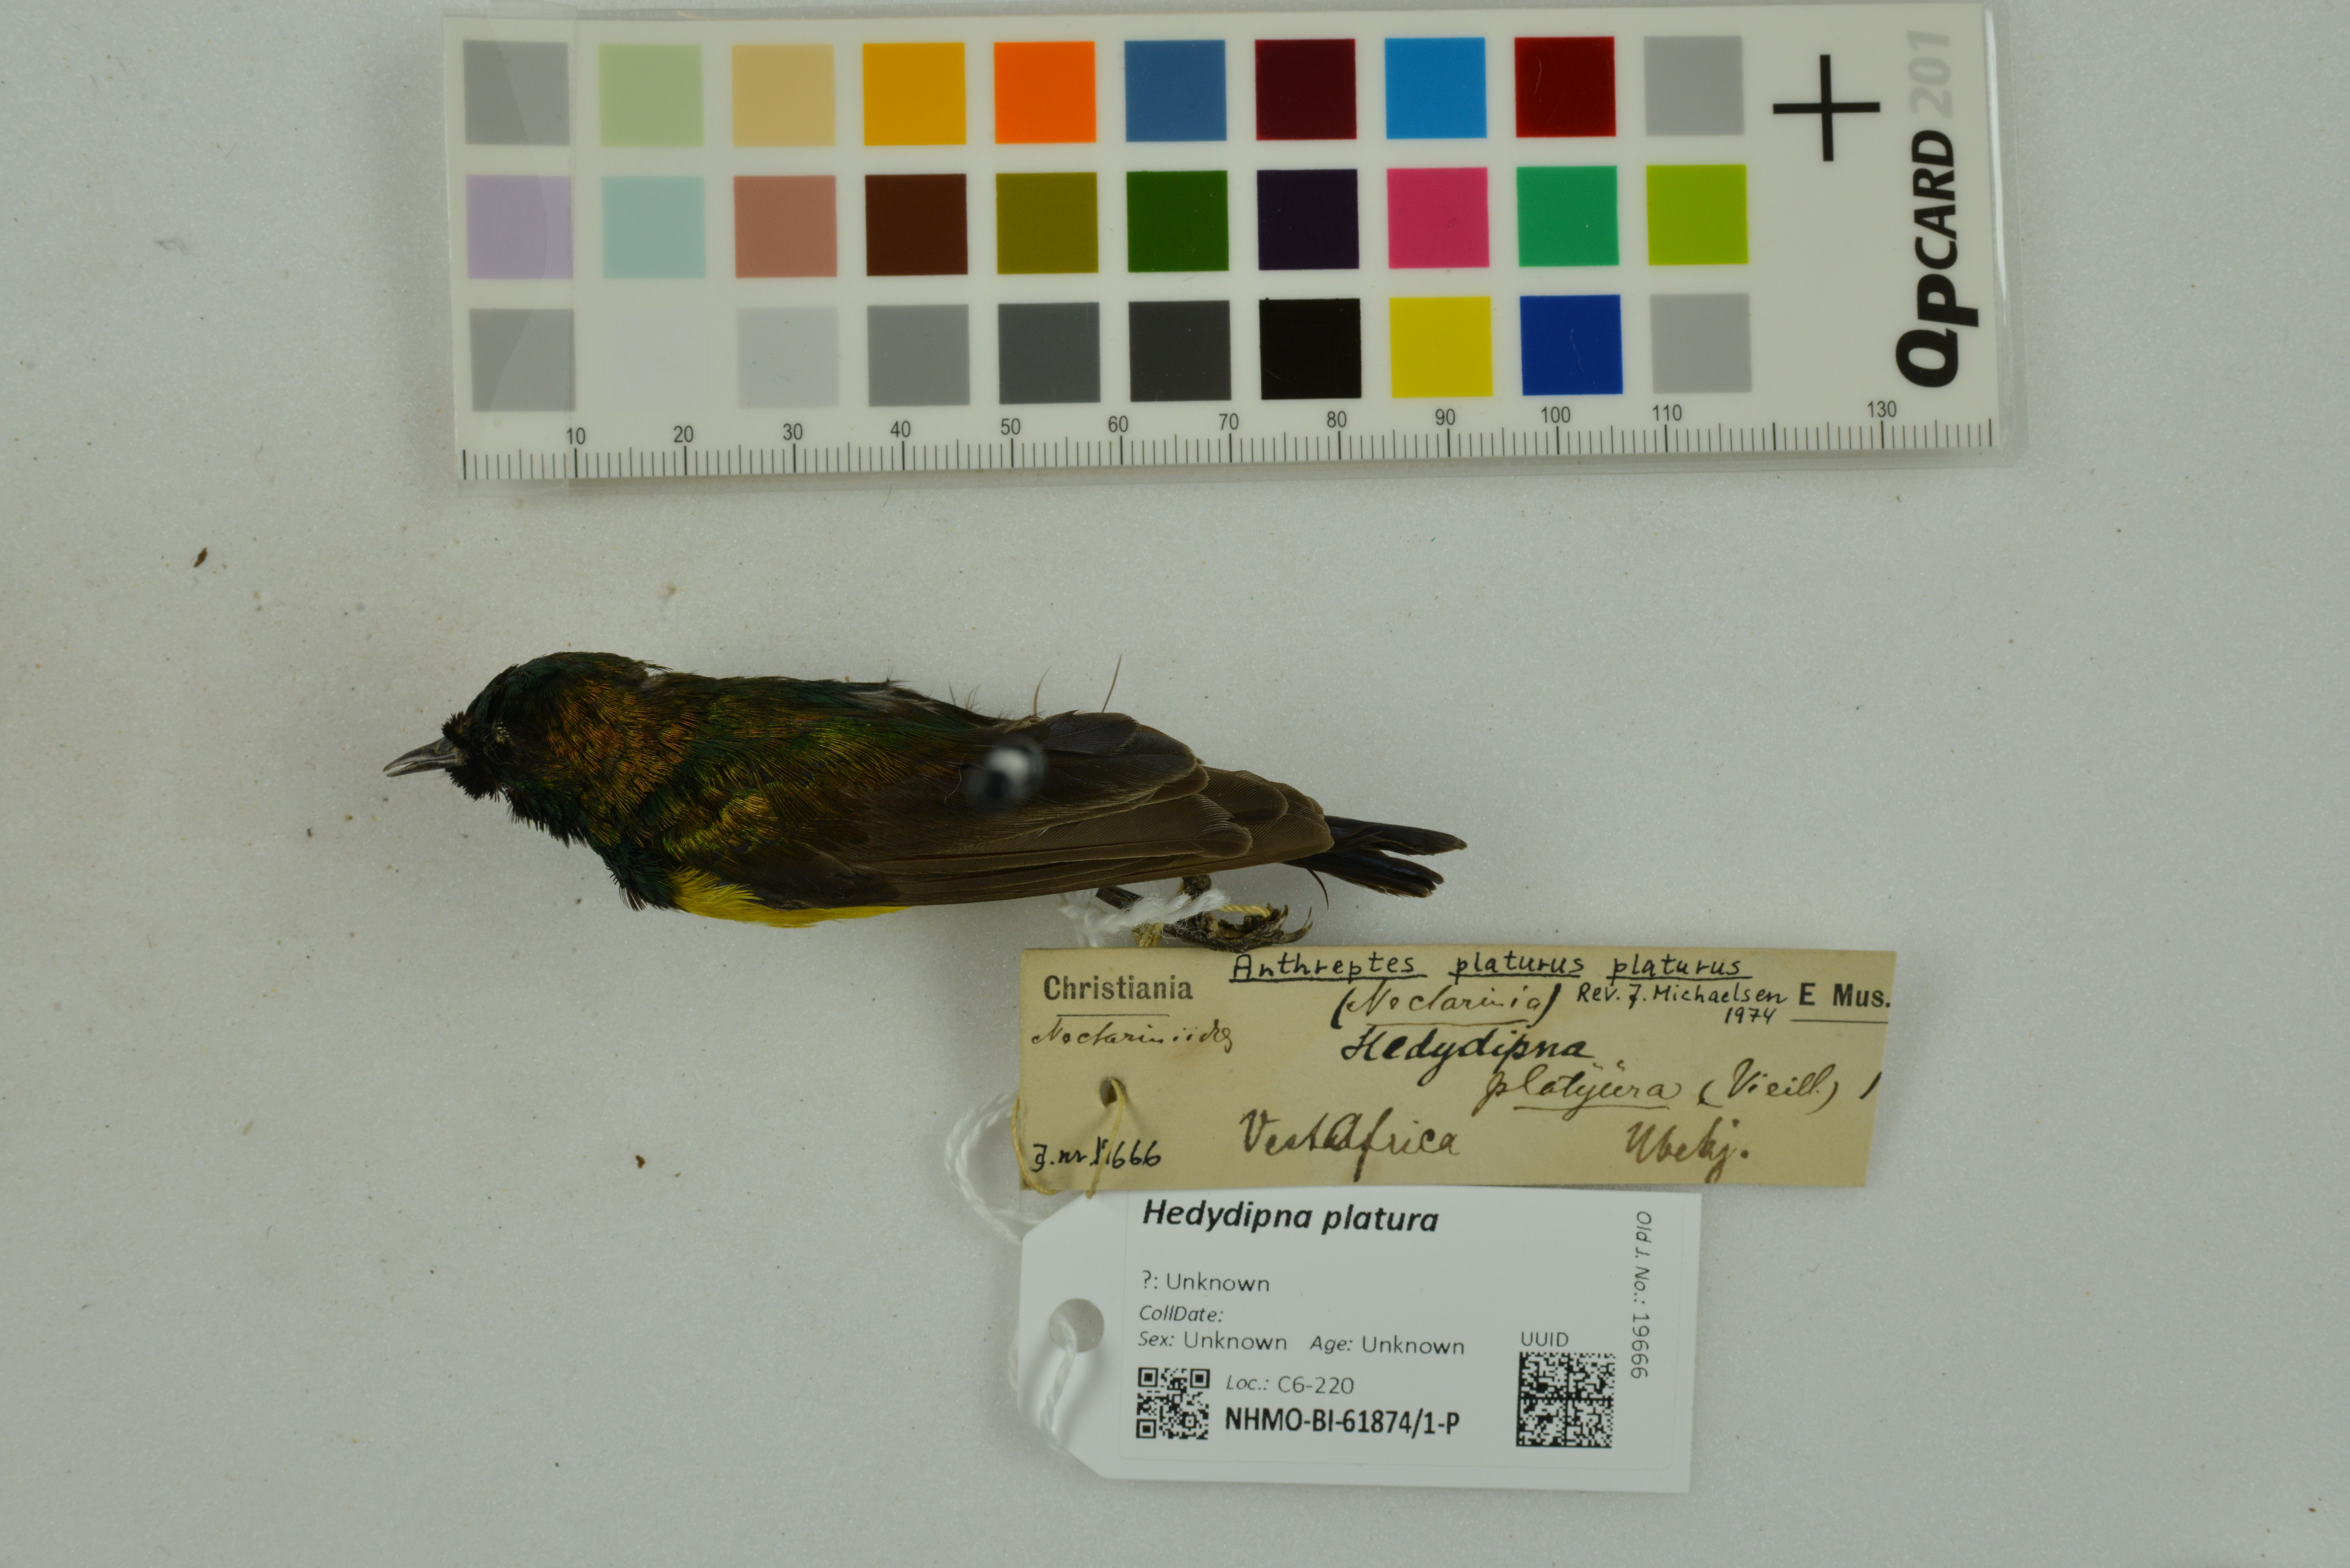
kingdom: Animalia
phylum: Chordata
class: Aves
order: Passeriformes
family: Nectariniidae
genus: Hedydipna
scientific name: Hedydipna platura
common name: Pygmy sunbird
